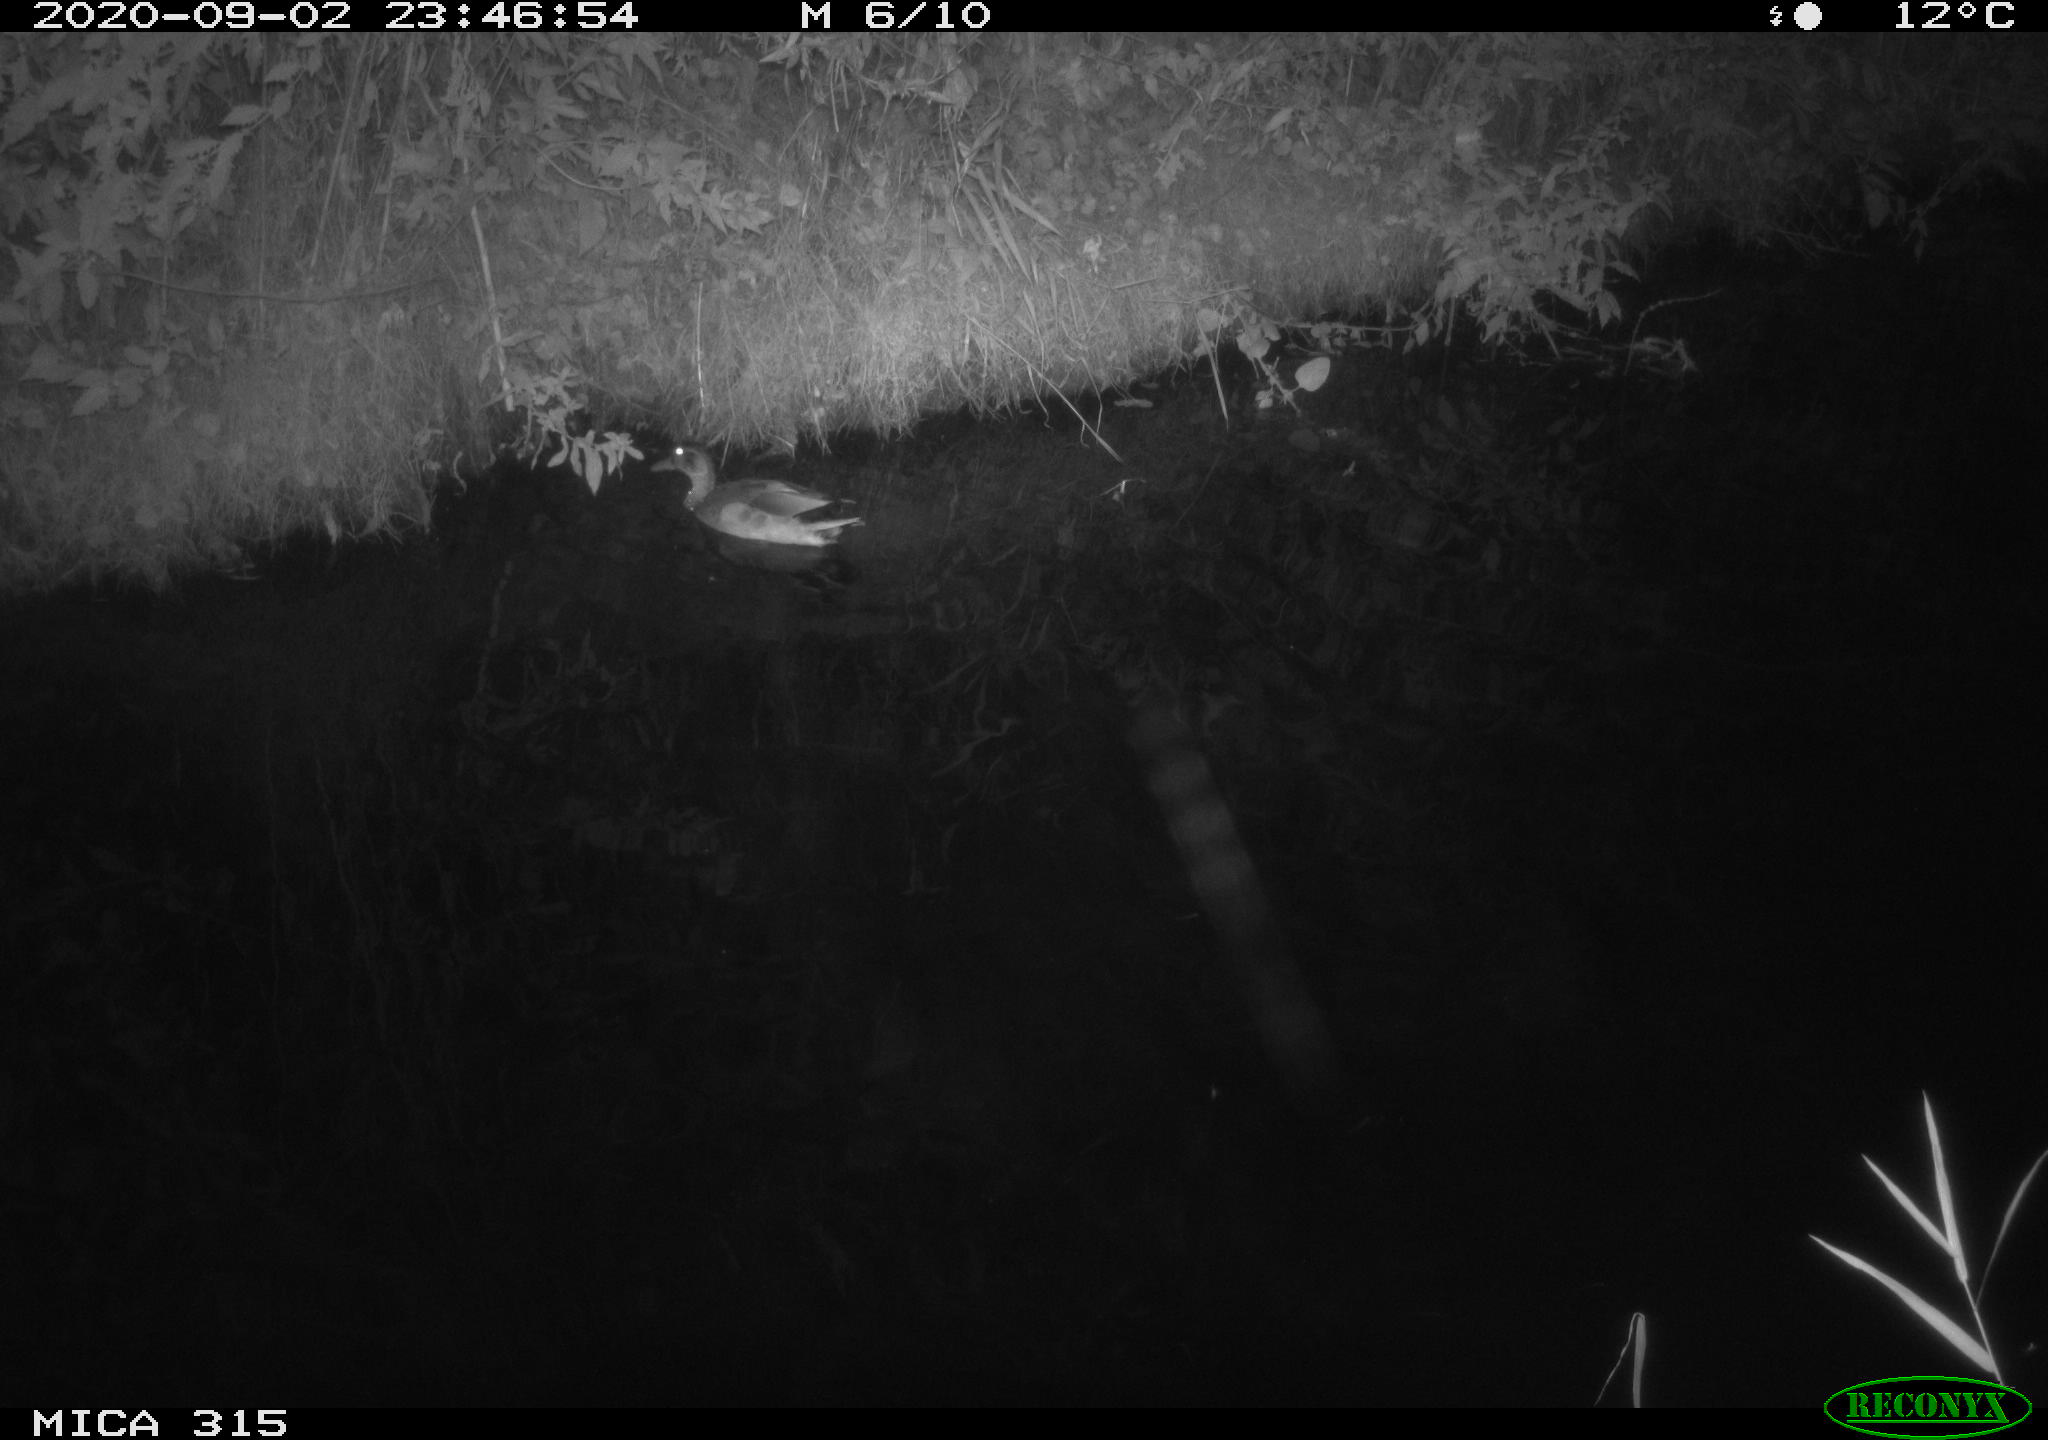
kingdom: Animalia
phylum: Chordata
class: Aves
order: Anseriformes
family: Anatidae
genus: Anas
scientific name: Anas platyrhynchos
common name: Mallard
